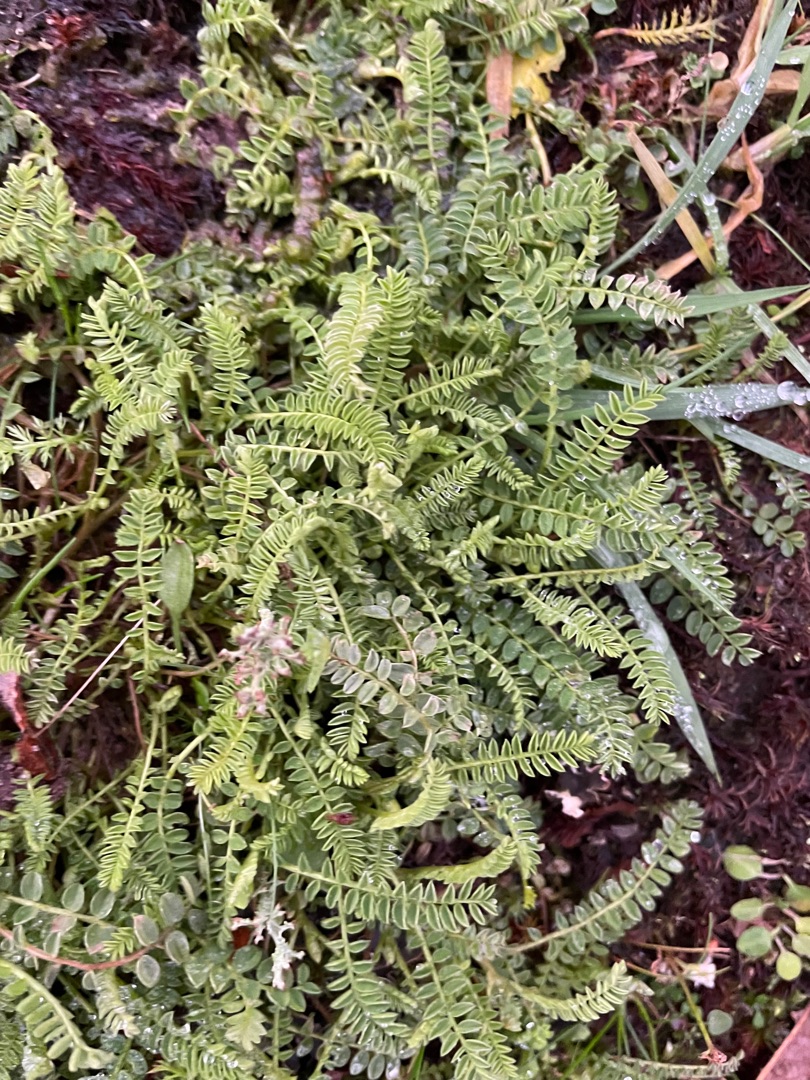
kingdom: Plantae
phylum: Tracheophyta
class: Magnoliopsida
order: Fabales
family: Fabaceae
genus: Ornithopus
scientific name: Ornithopus perpusillus
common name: Liden fugleklo
